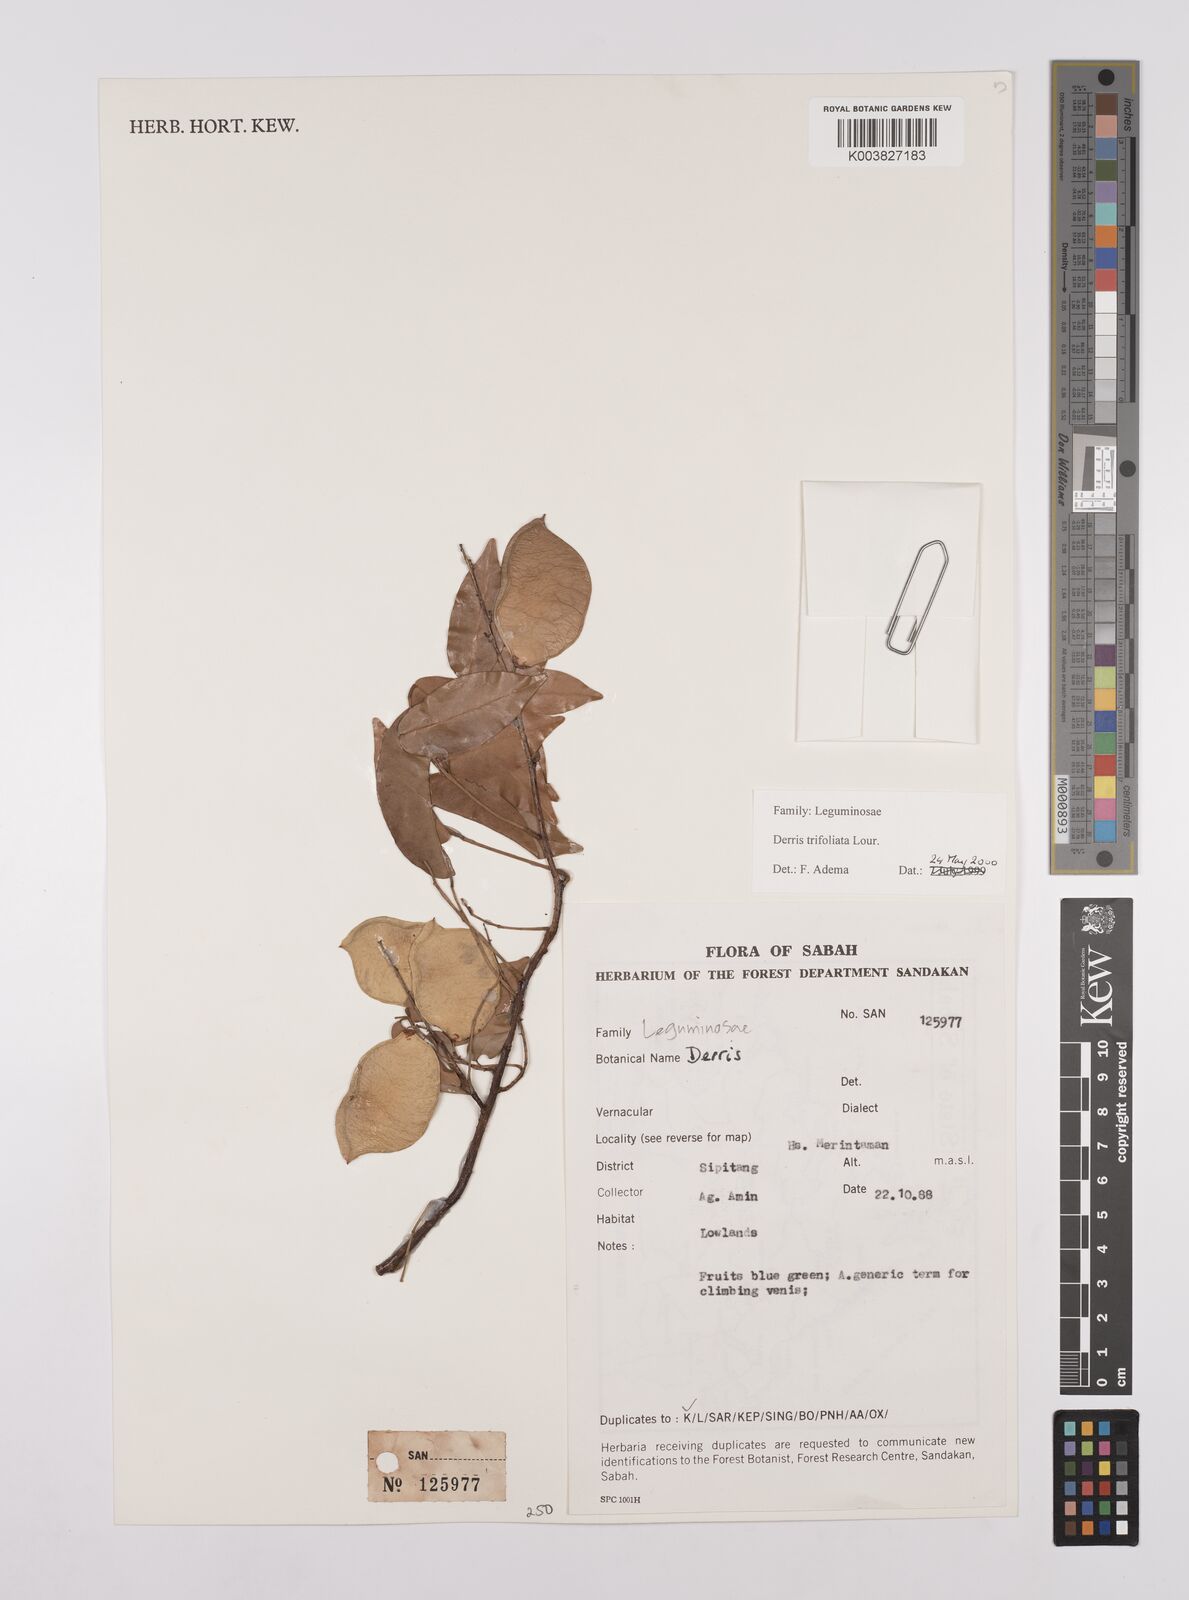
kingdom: Plantae
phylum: Tracheophyta
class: Magnoliopsida
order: Fabales
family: Fabaceae
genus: Derris
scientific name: Derris trifoliata
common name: Three-leaf derris
